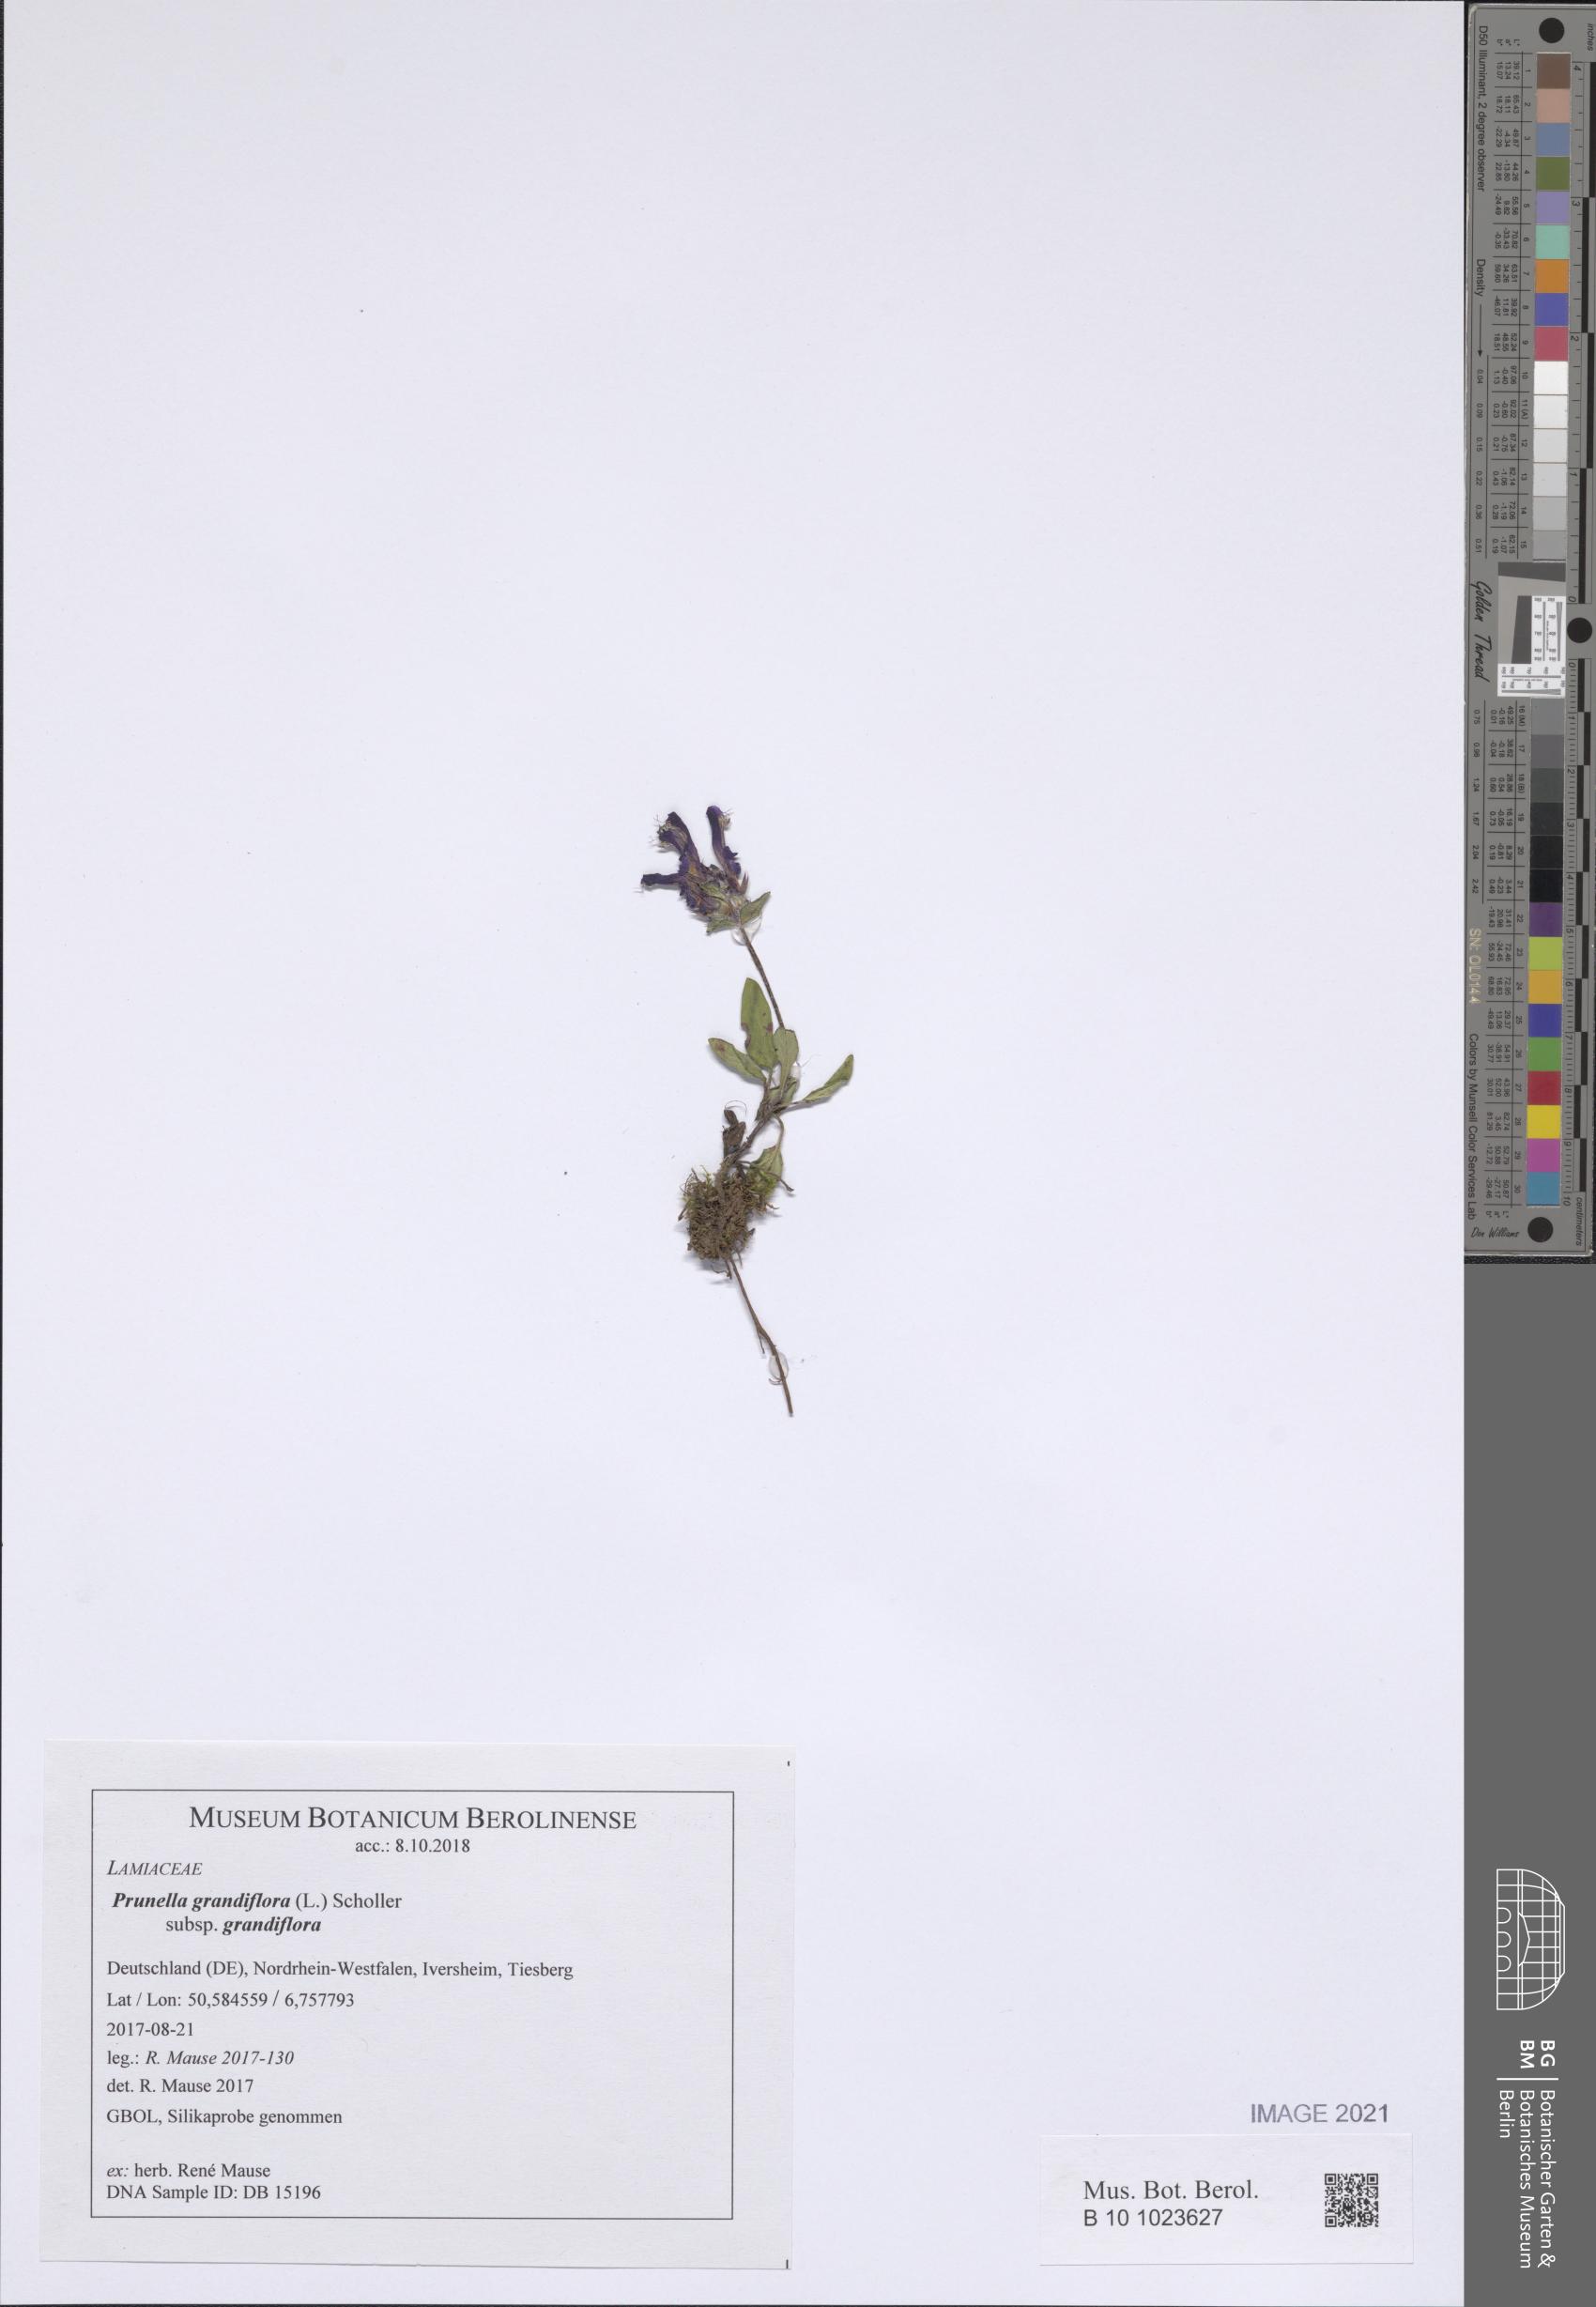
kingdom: Plantae
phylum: Tracheophyta
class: Magnoliopsida
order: Lamiales
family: Lamiaceae
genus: Prunella
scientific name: Prunella grandiflora
